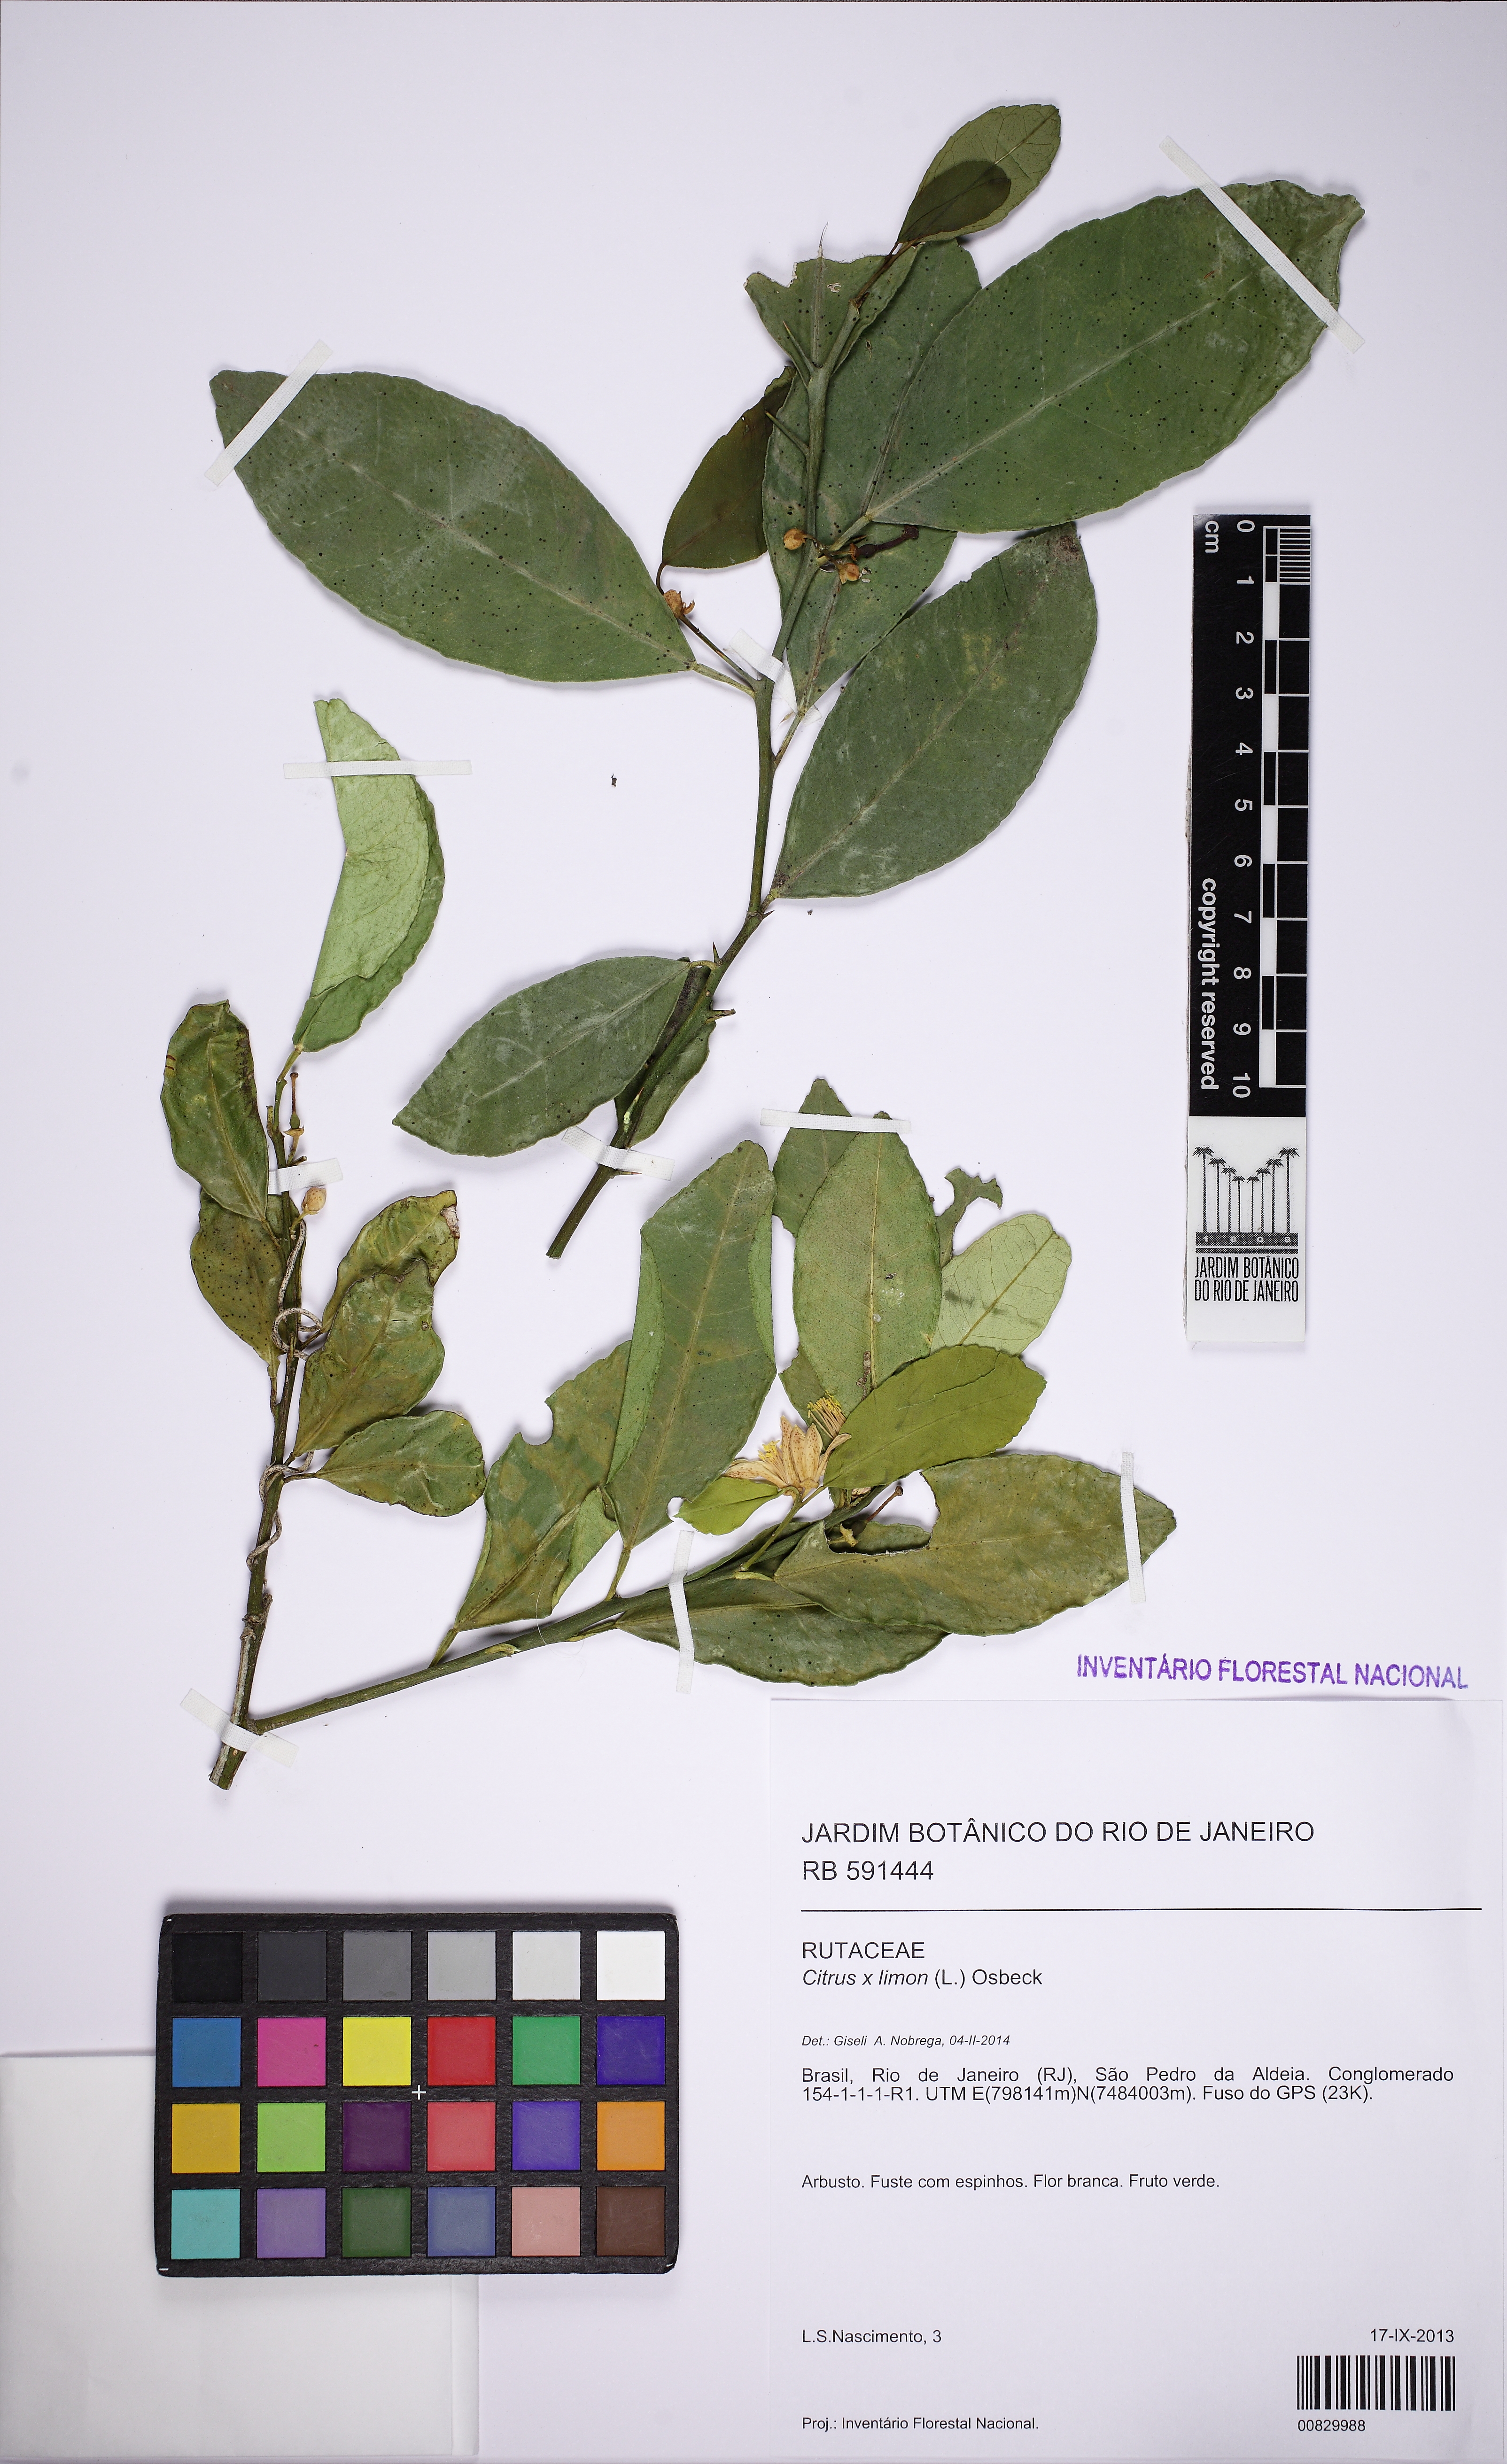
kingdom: Plantae
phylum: Tracheophyta
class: Magnoliopsida
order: Sapindales
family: Rutaceae
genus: Citrus
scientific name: Citrus limon
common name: Lemon
